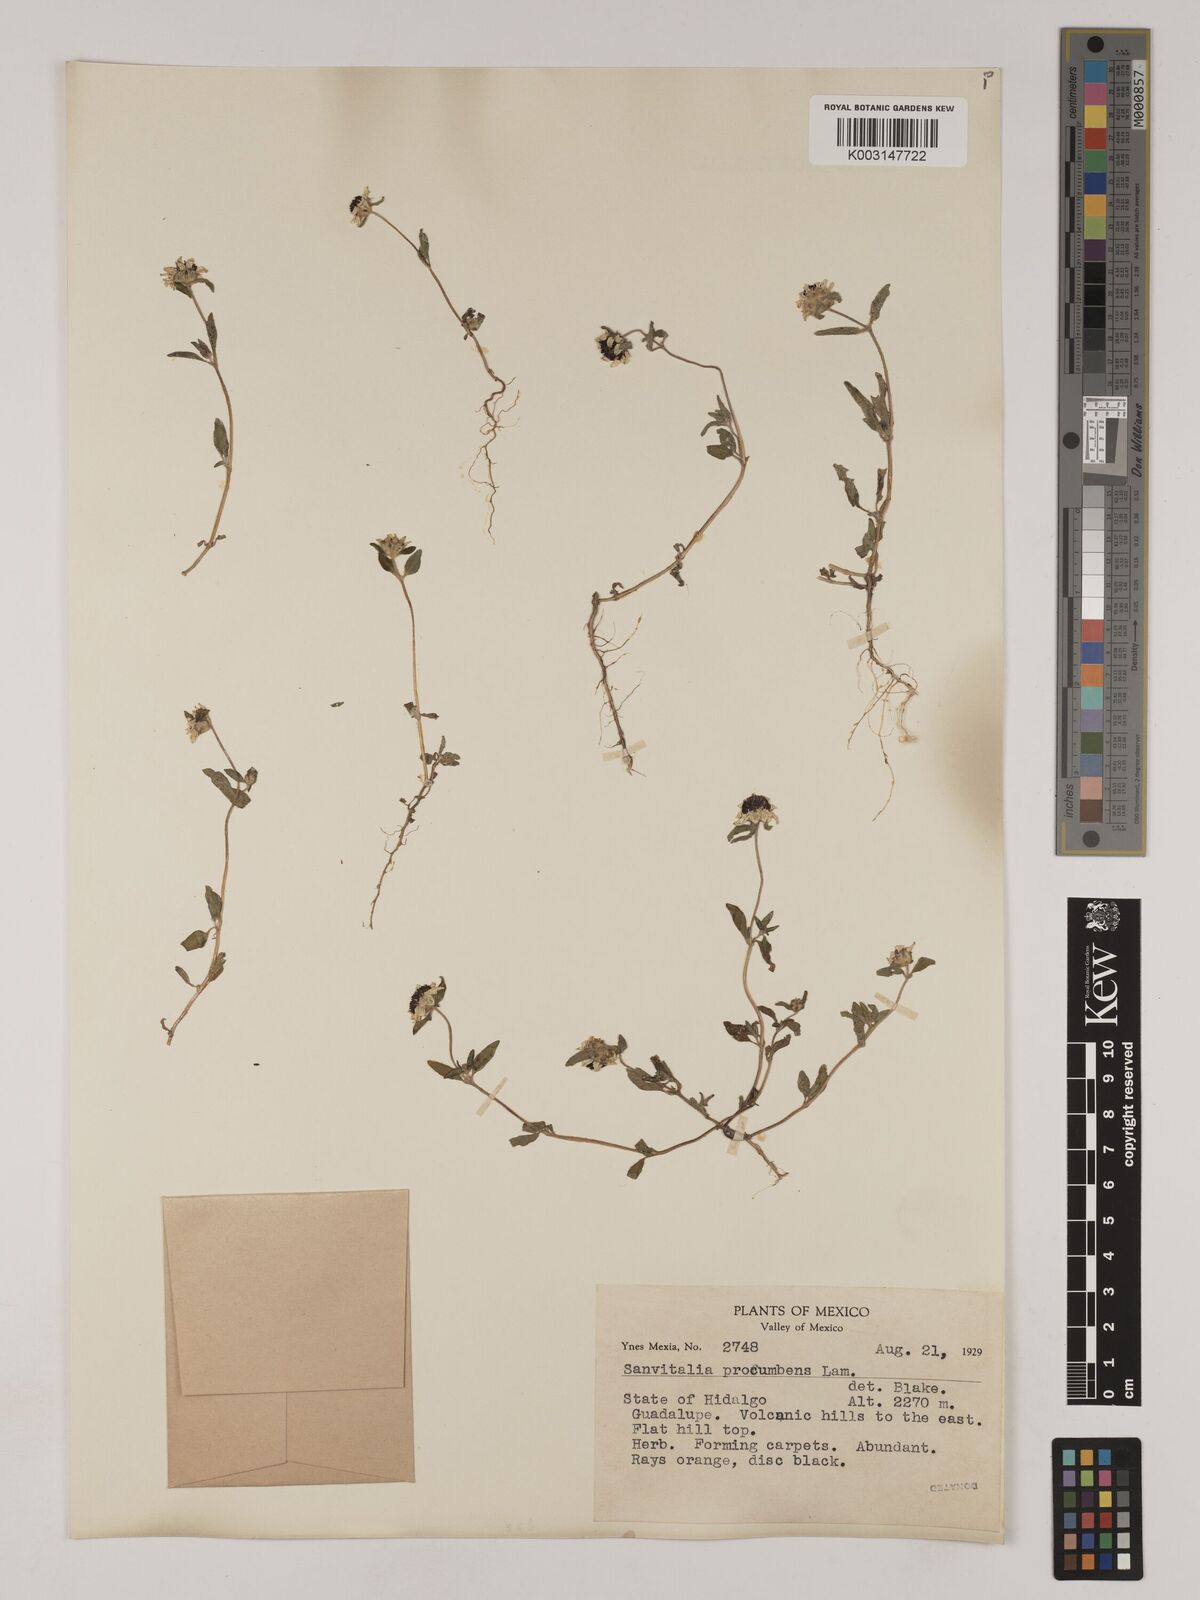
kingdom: Plantae
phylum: Tracheophyta
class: Magnoliopsida
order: Asterales
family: Asteraceae
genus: Sanvitalia
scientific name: Sanvitalia procumbens
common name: Mexican creeping zinnia
